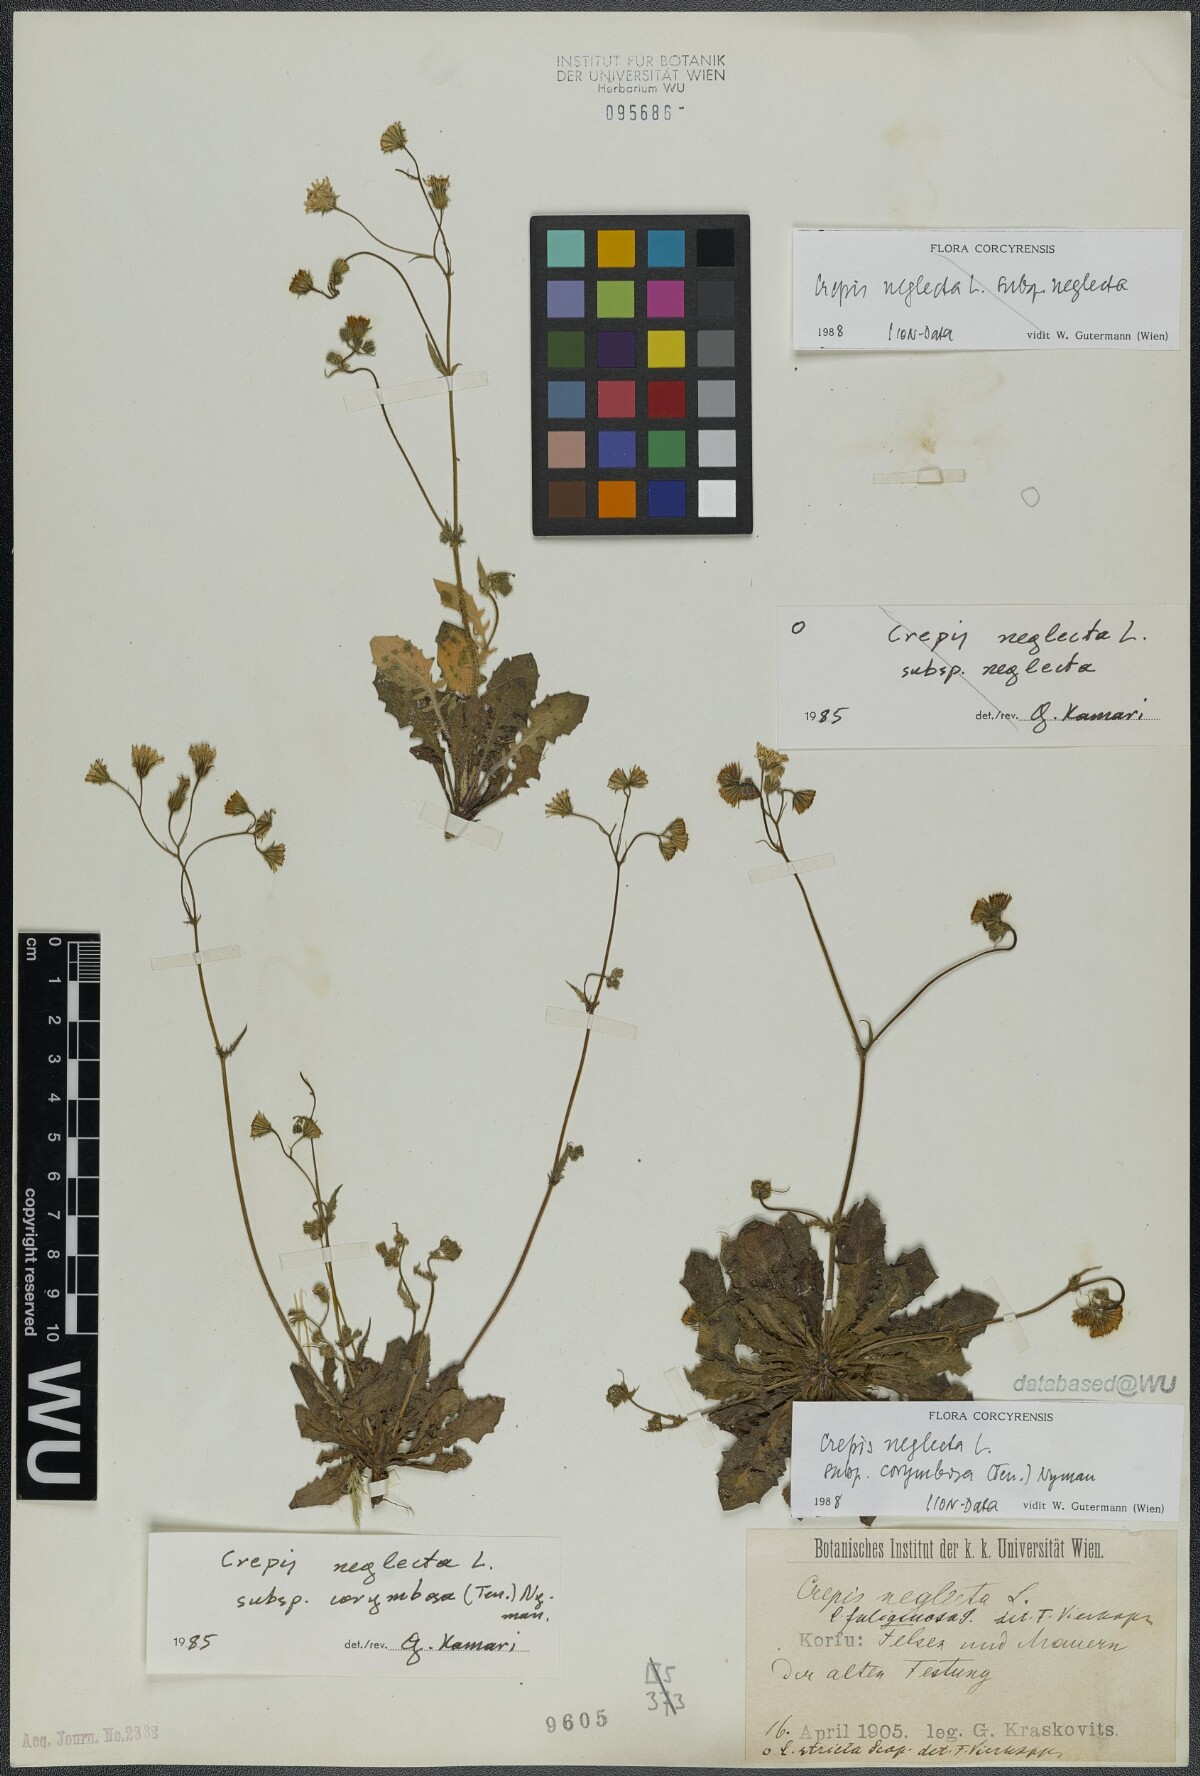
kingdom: Plantae
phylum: Tracheophyta
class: Magnoliopsida
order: Asterales
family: Asteraceae
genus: Crepis
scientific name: Crepis neglecta
